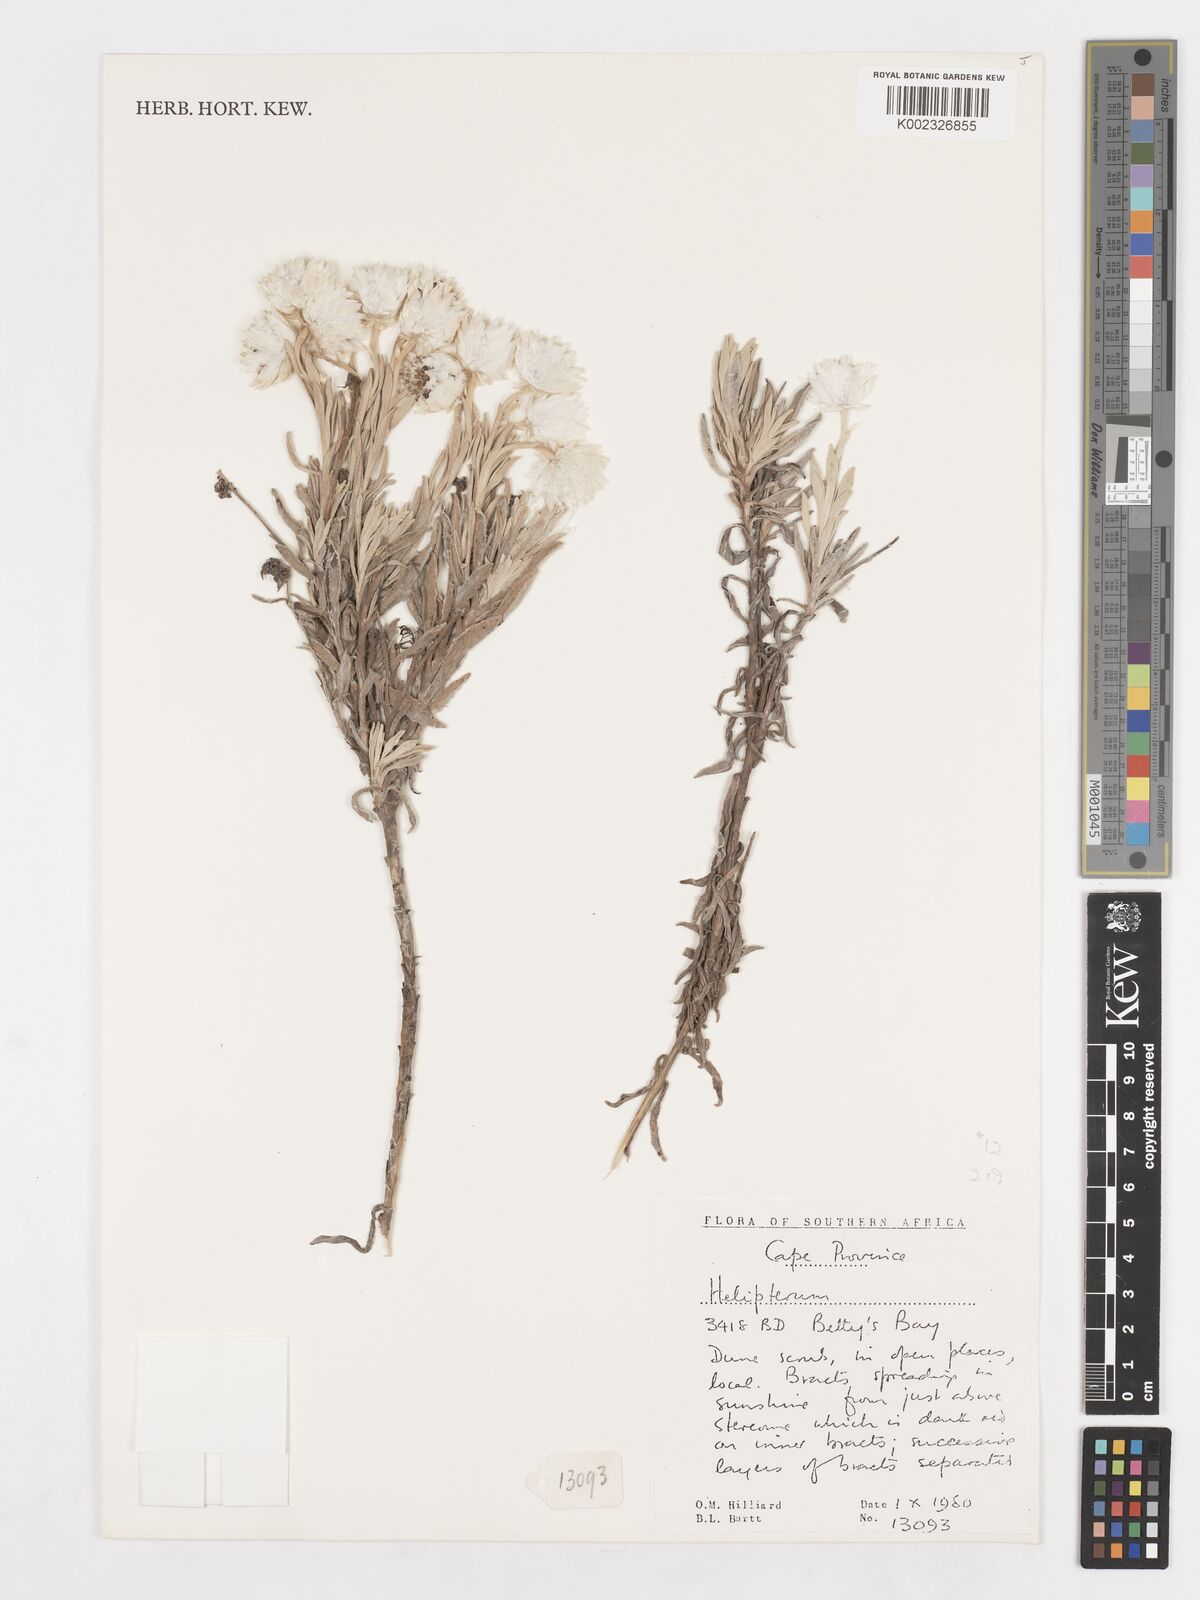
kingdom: Plantae
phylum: Tracheophyta
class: Magnoliopsida
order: Asterales
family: Asteraceae
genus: Syncarpha
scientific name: Syncarpha
